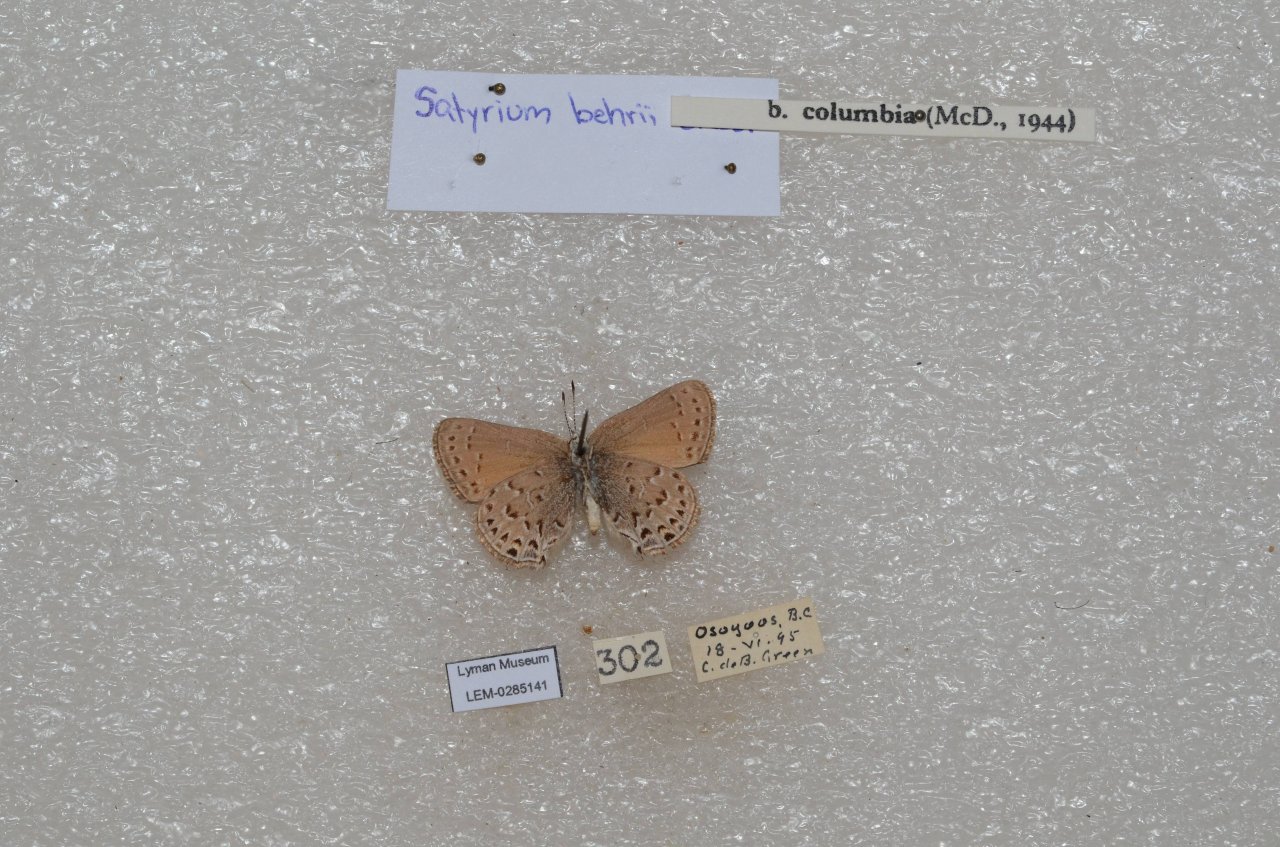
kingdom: Animalia
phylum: Arthropoda
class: Insecta
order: Lepidoptera
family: Lycaenidae
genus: Satyrium
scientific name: Satyrium behrii
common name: Behr's Hairstreak
